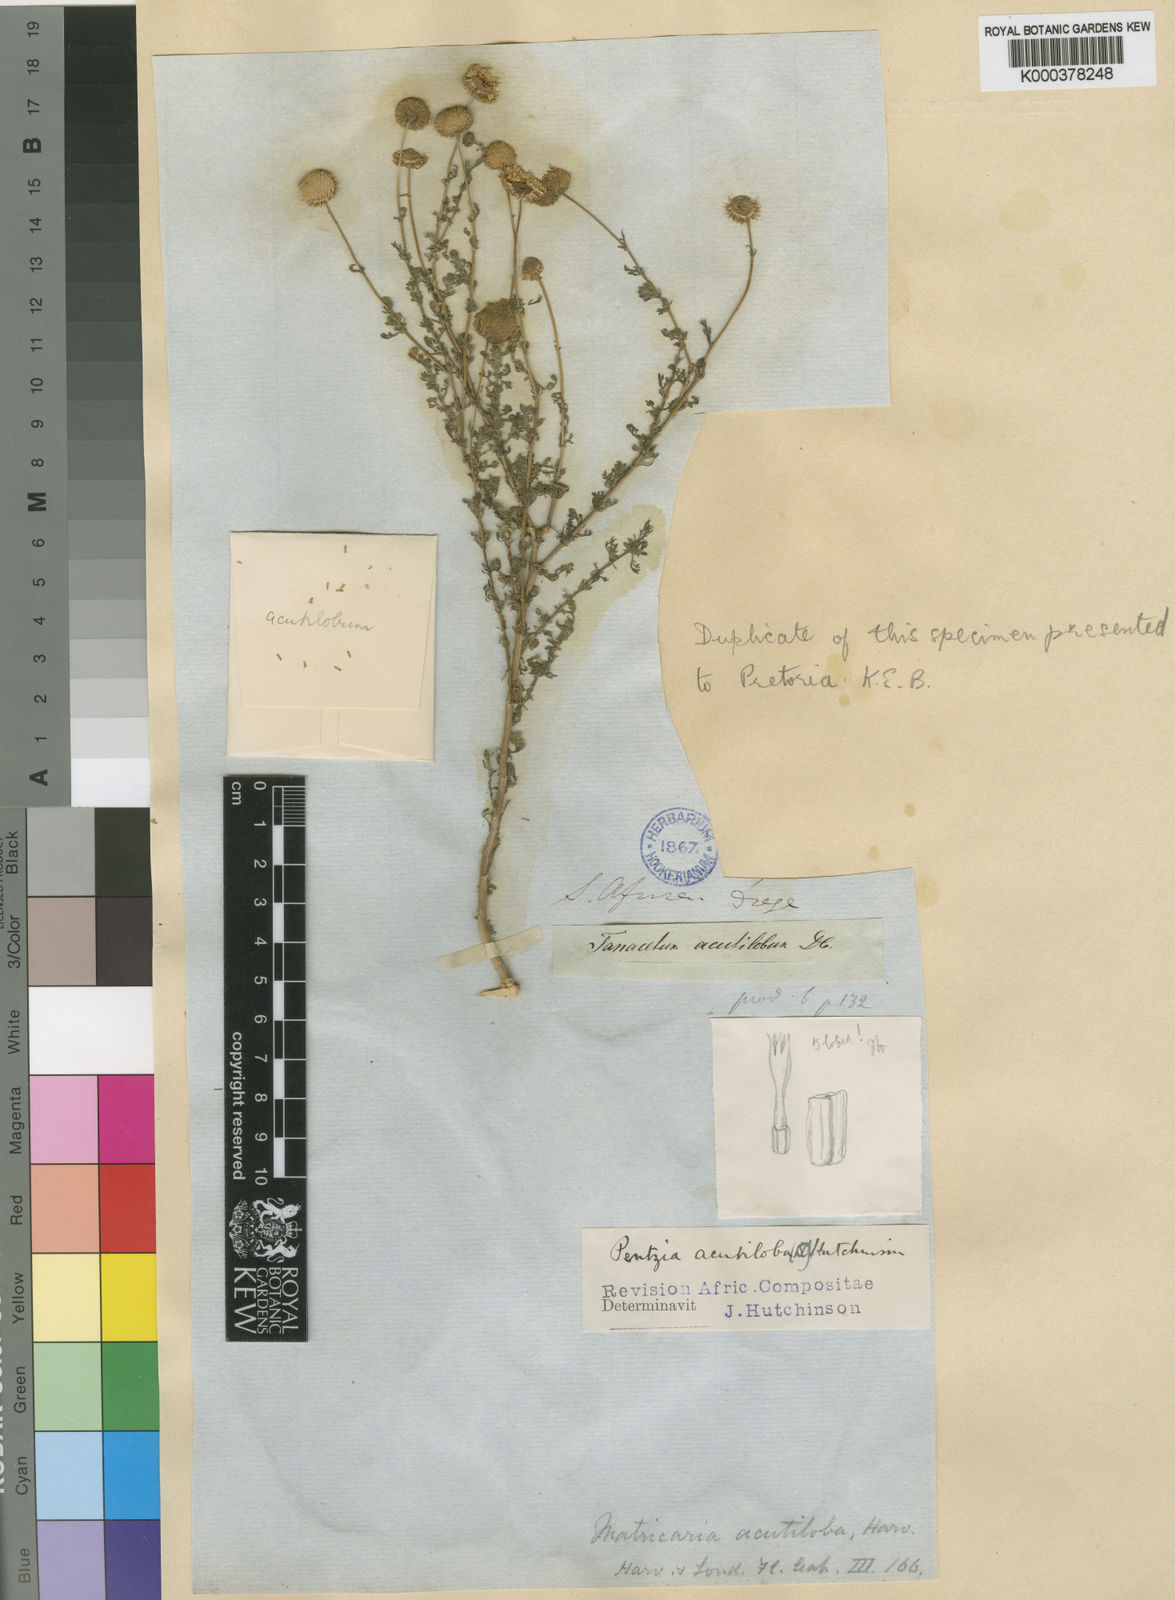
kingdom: Plantae
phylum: Tracheophyta
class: Magnoliopsida
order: Asterales
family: Asteraceae
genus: Myxopappus
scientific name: Myxopappus
